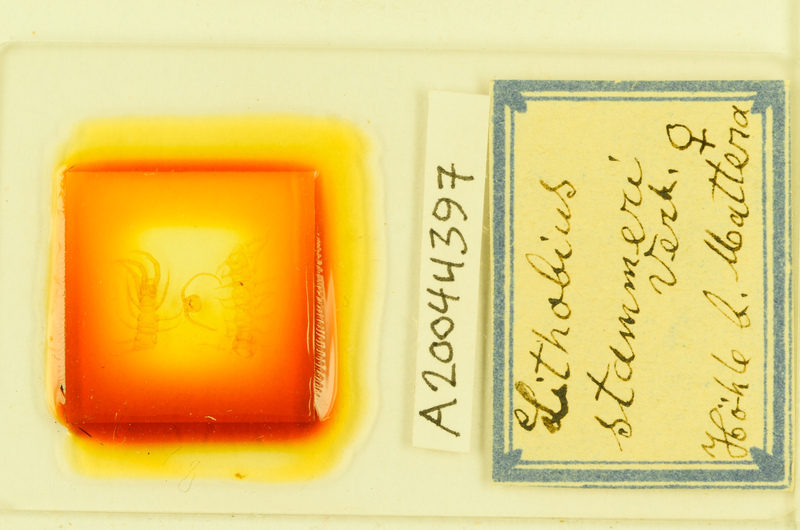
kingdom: Animalia
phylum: Arthropoda
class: Chilopoda
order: Lithobiomorpha
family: Lithobiidae
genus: Lithobius
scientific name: Lithobius stammeri
